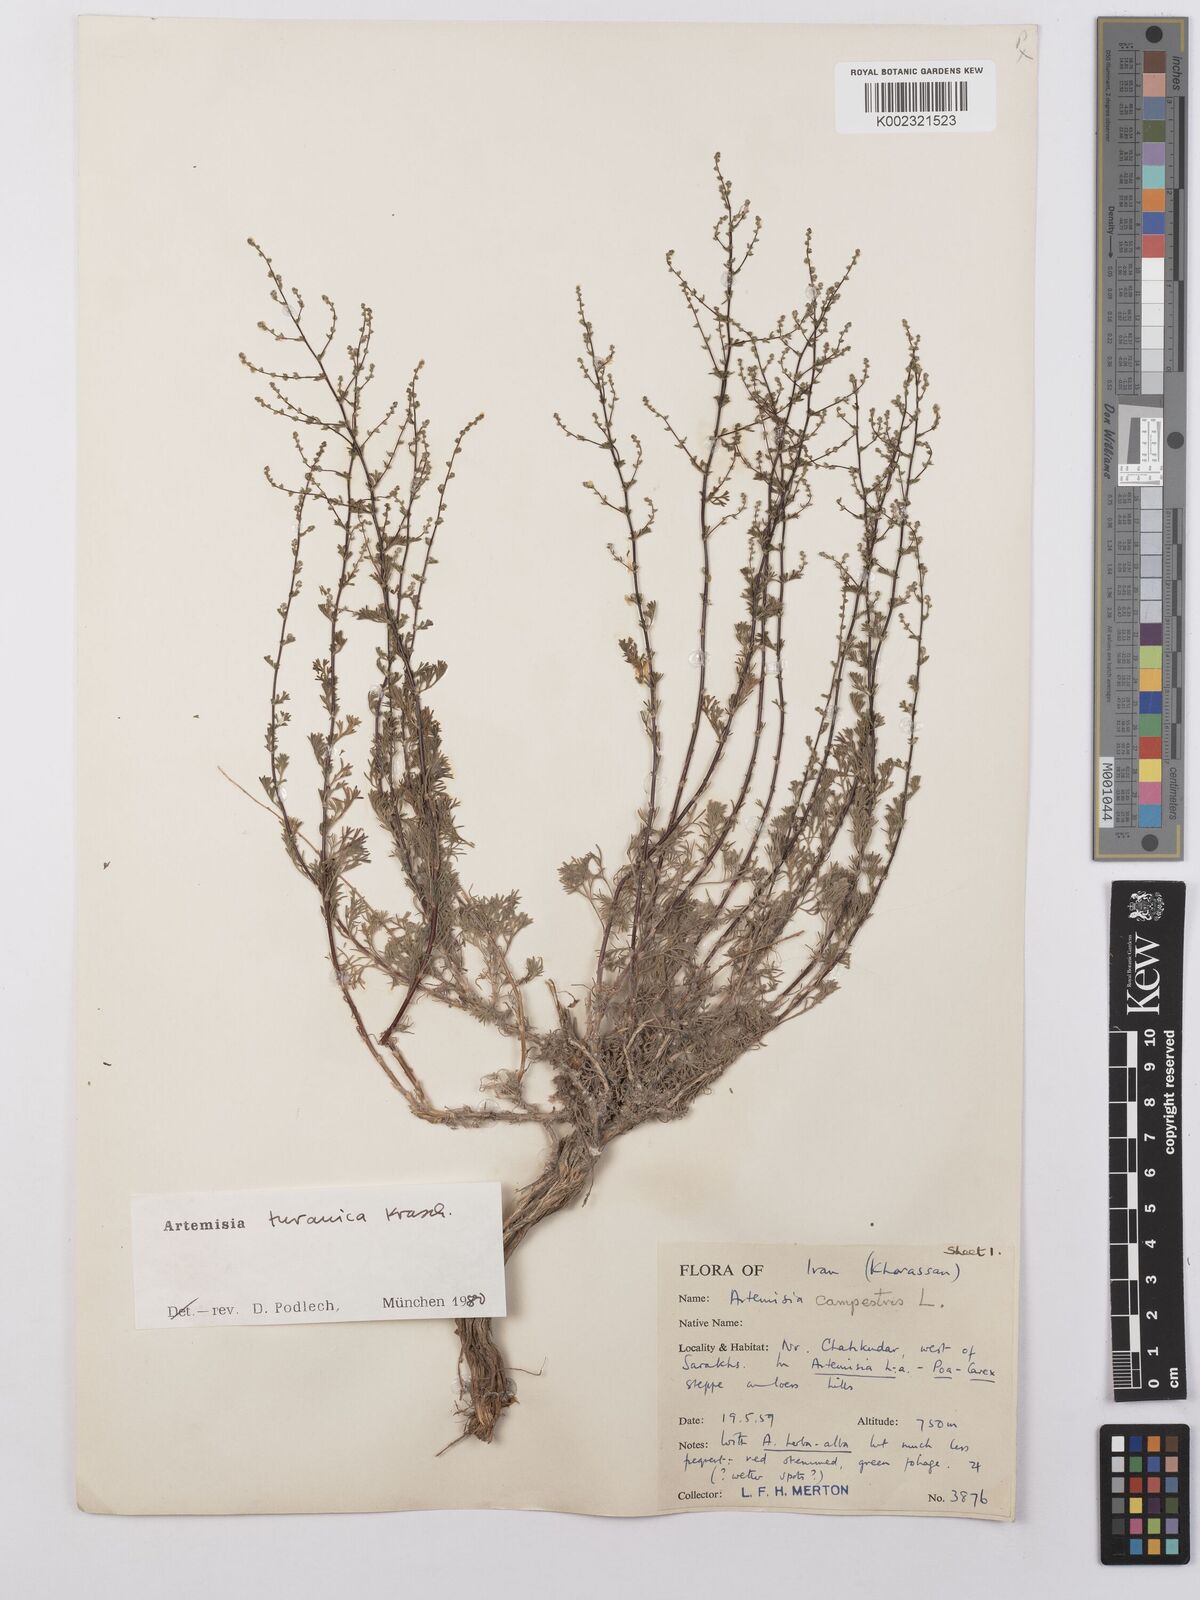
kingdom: Plantae
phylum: Tracheophyta
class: Magnoliopsida
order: Asterales
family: Asteraceae
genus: Artemisia
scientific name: Artemisia turanica
